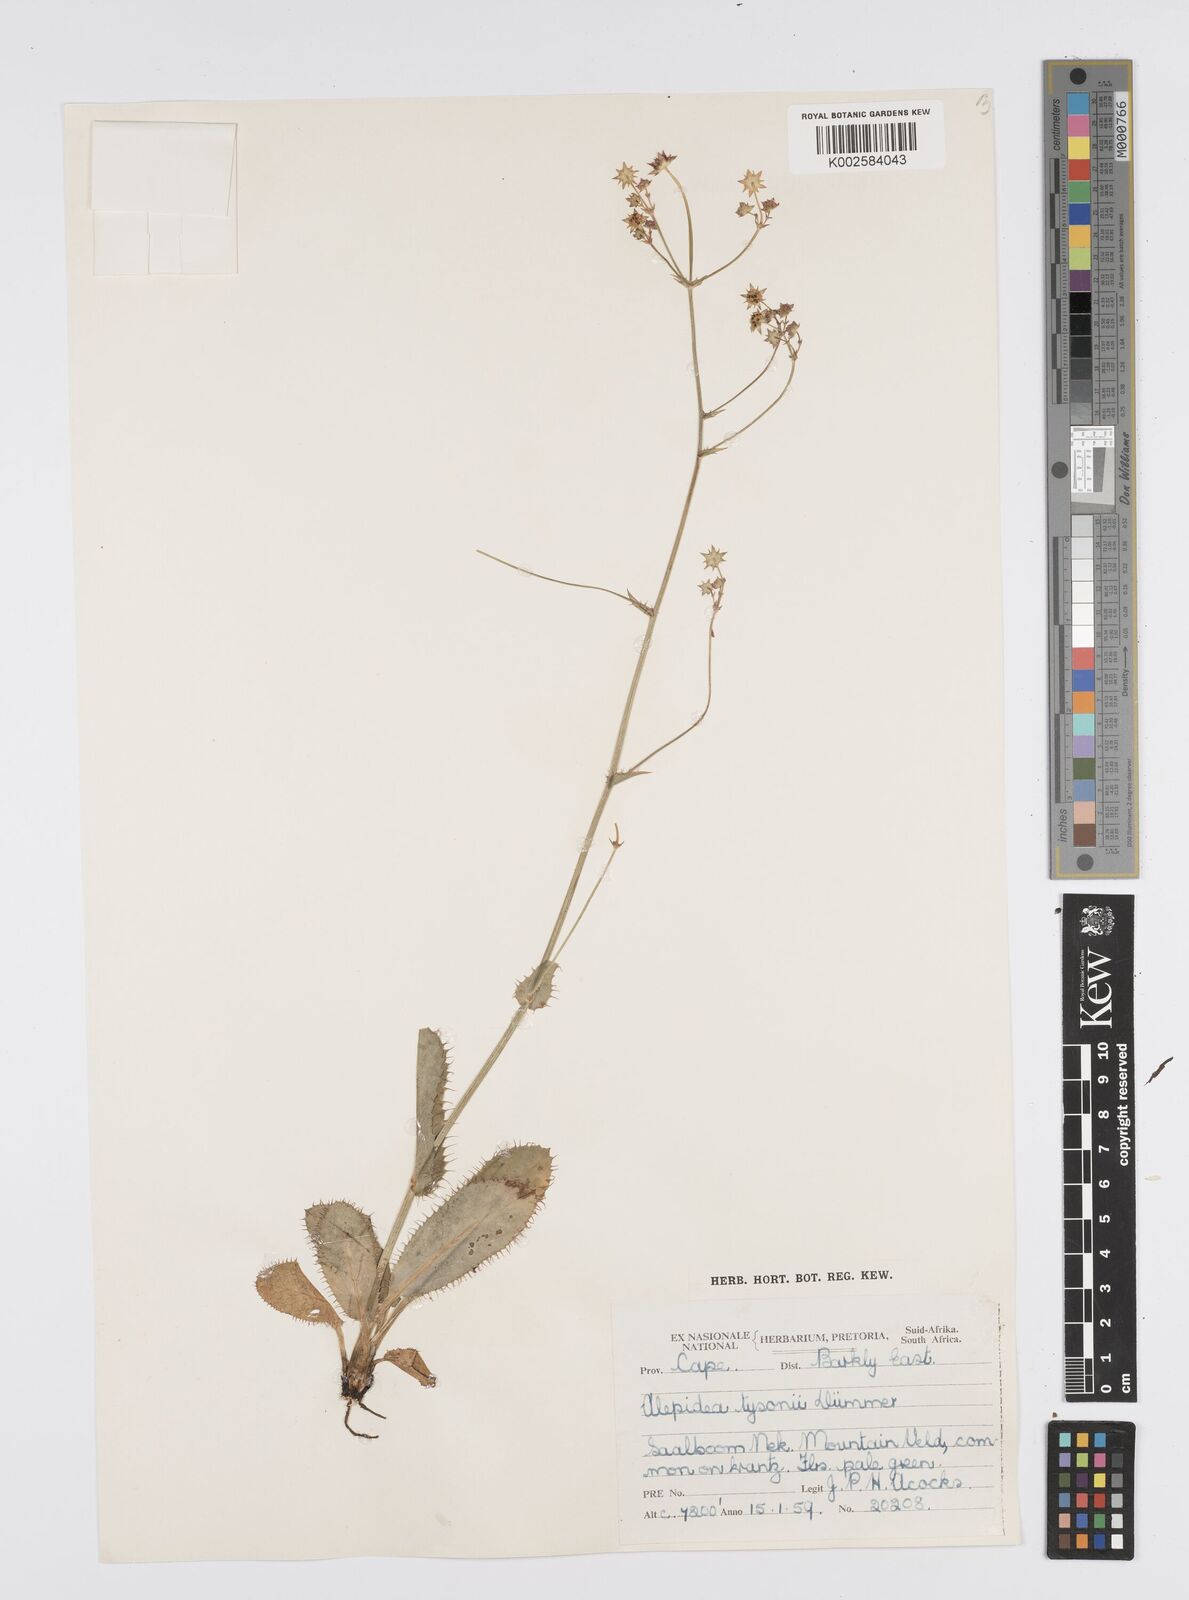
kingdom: Plantae
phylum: Tracheophyta
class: Magnoliopsida
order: Apiales
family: Apiaceae
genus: Alepidea
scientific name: Alepidea woodii
